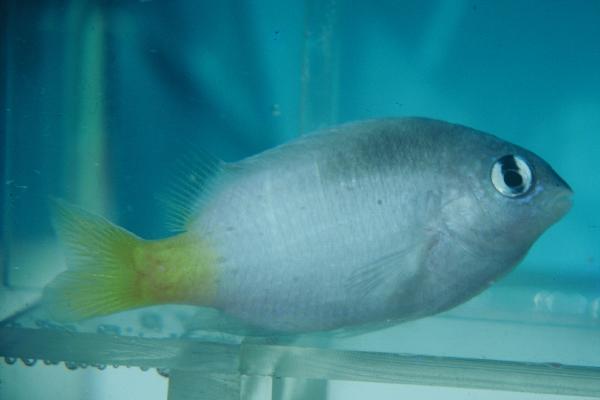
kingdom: Animalia
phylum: Chordata
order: Perciformes
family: Pomacentridae
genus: Plectroglyphidodon
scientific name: Plectroglyphidodon imparipennis
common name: Brighteye damsel
